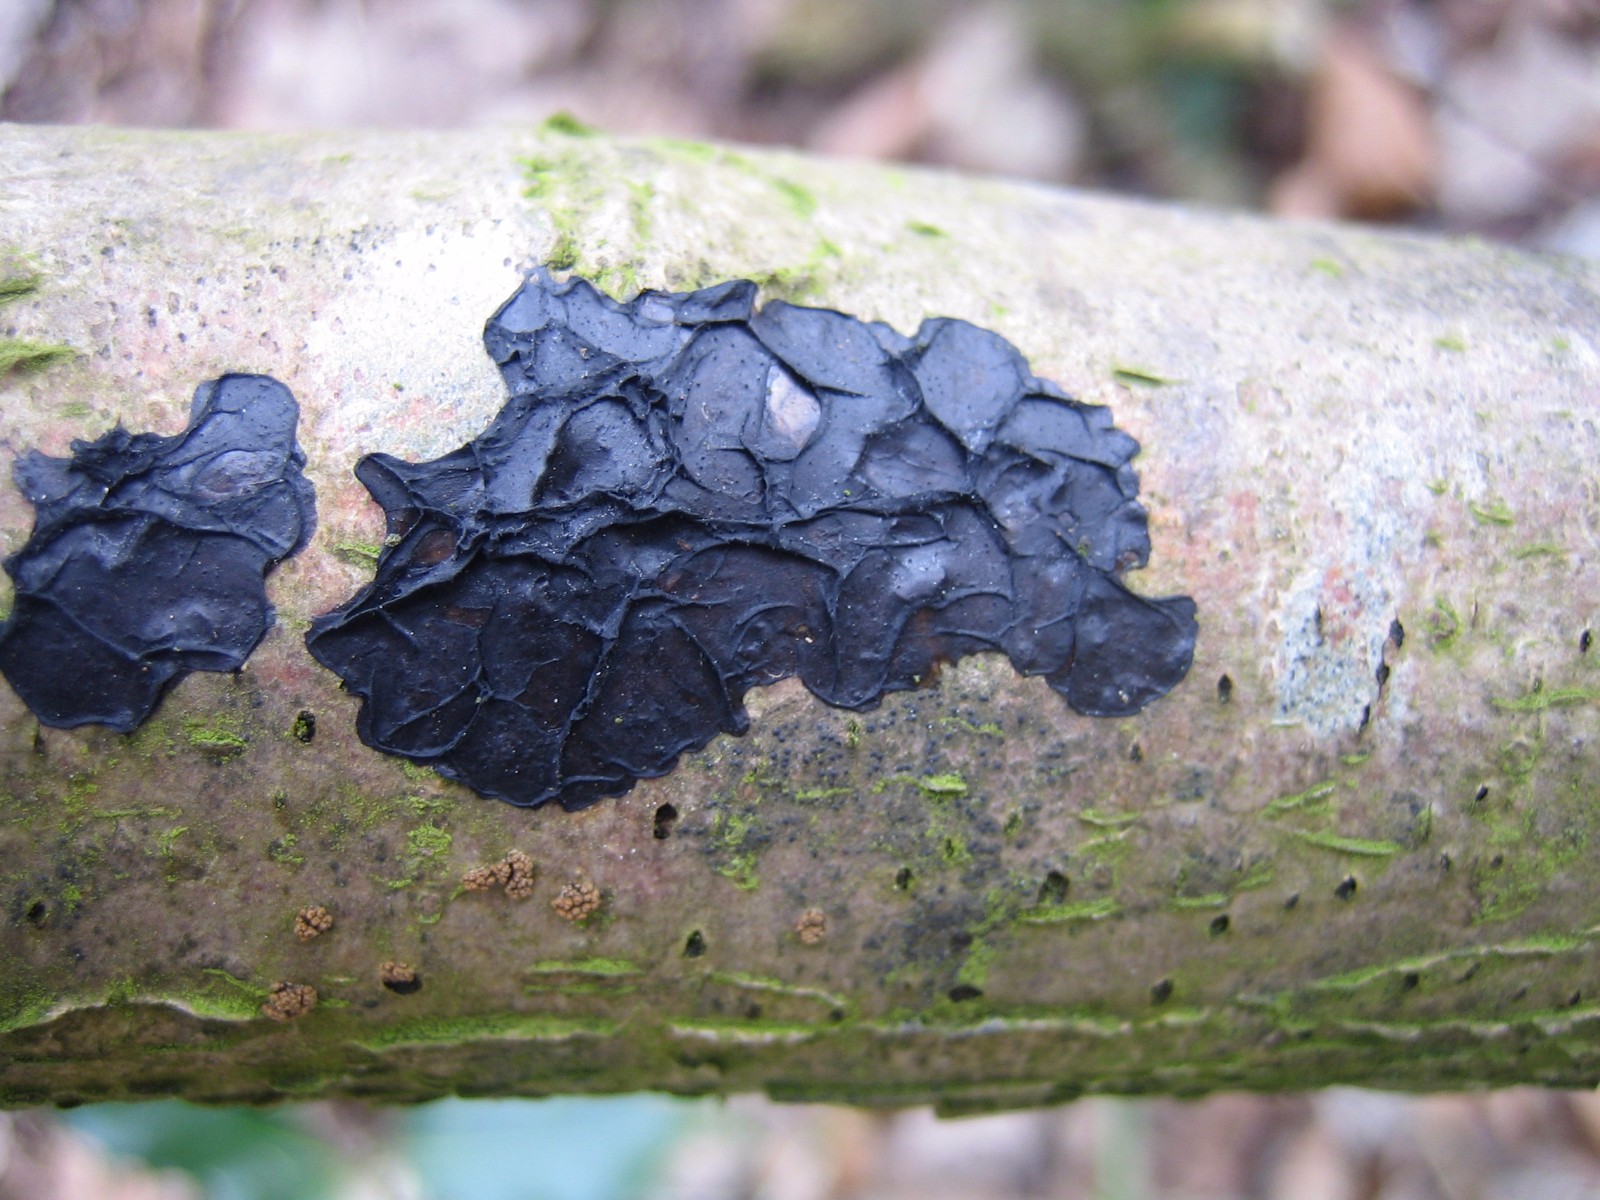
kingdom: Fungi
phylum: Basidiomycota
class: Agaricomycetes
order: Auriculariales
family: Auriculariaceae
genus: Exidia
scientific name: Exidia nigricans
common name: almindelig bævretop
